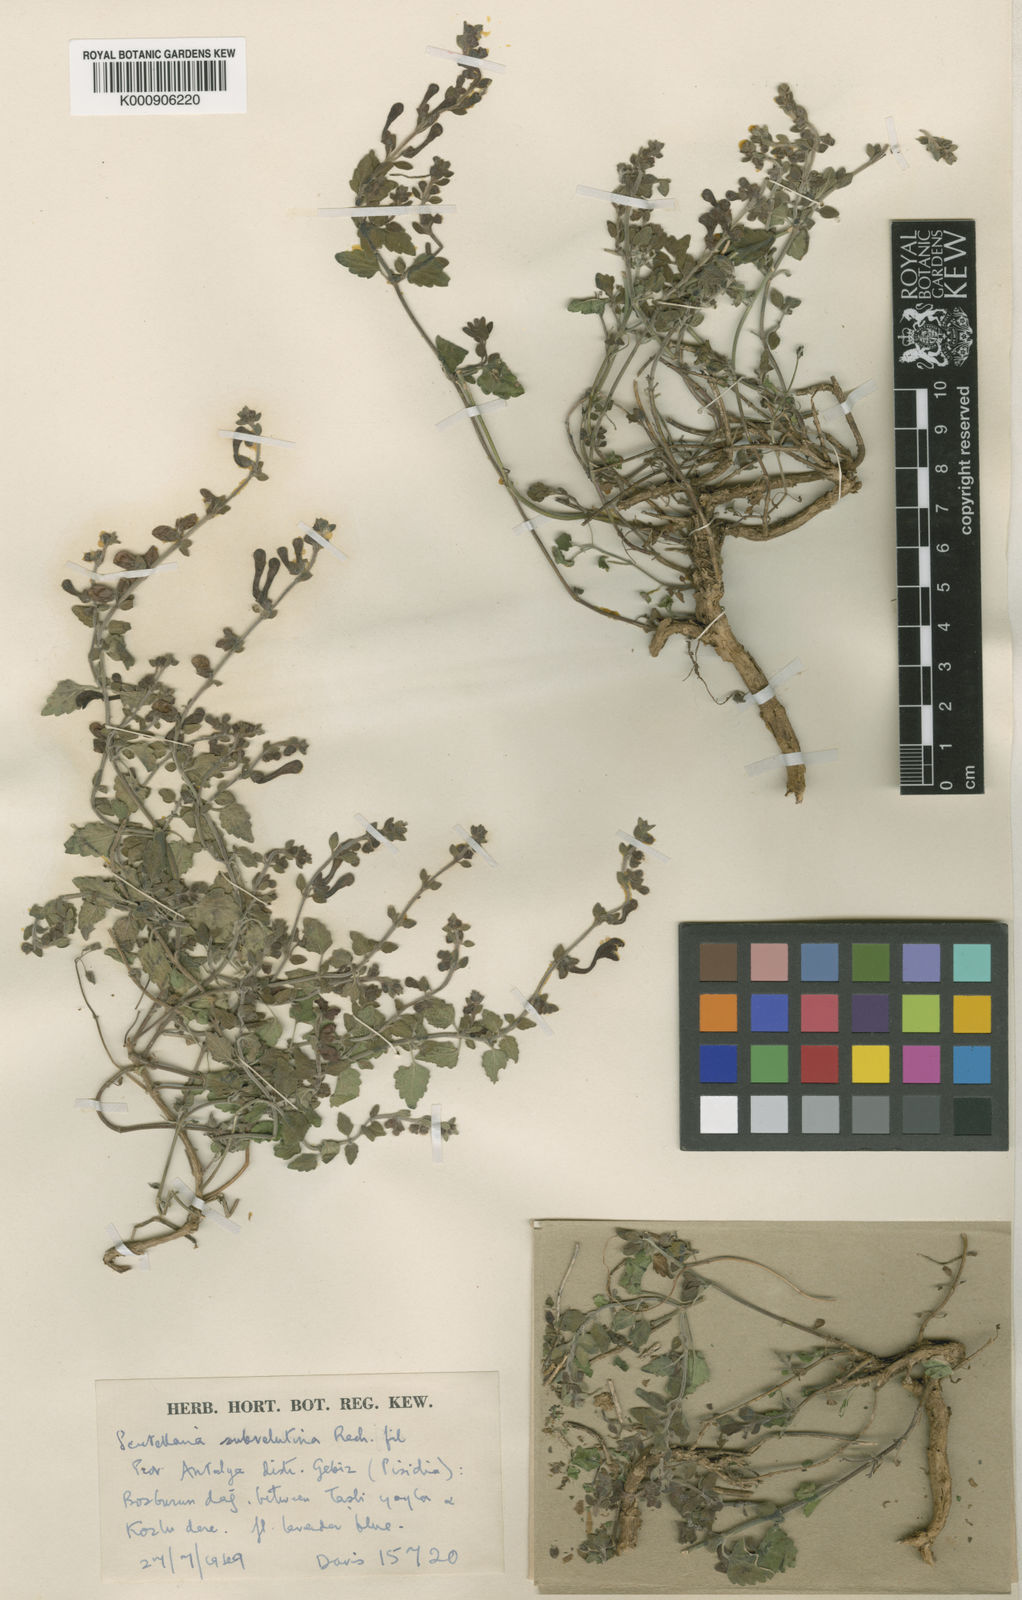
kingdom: Plantae
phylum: Tracheophyta
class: Magnoliopsida
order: Lamiales
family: Lamiaceae
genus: Scutellaria
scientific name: Scutellaria columnae
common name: Large skullcap
